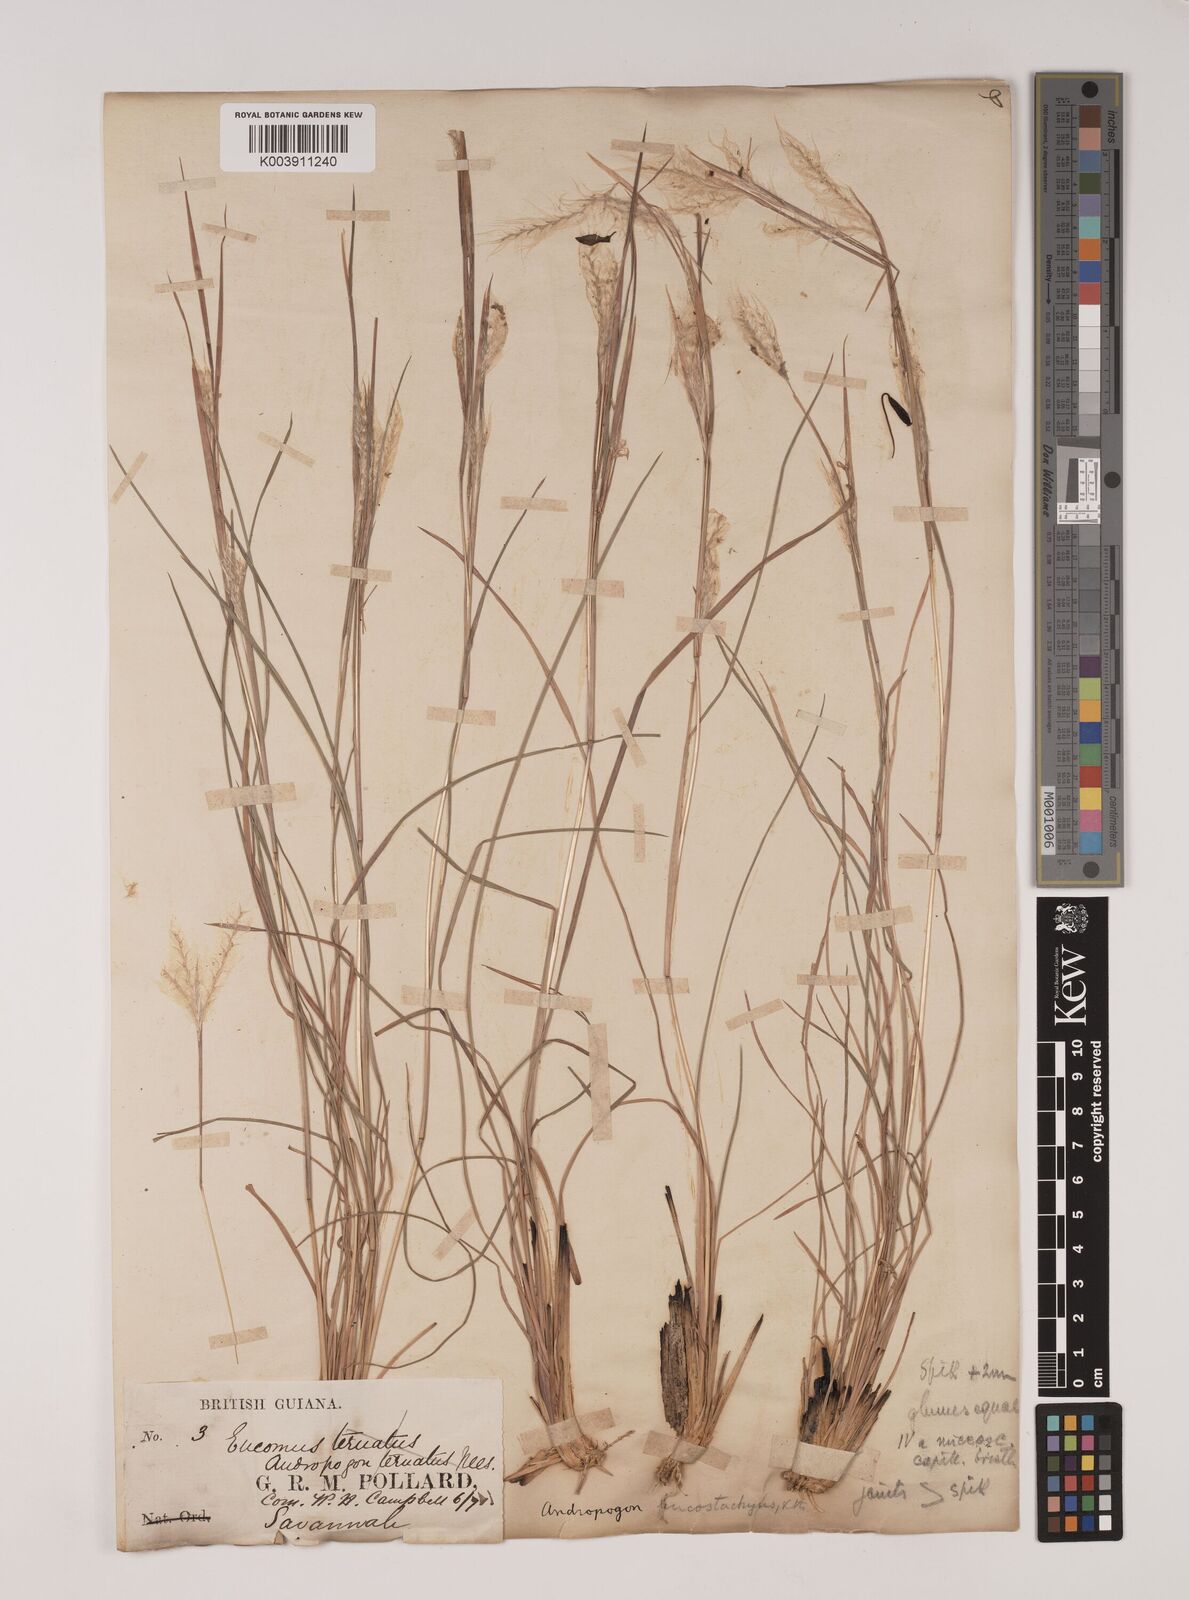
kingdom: Plantae
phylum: Tracheophyta
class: Liliopsida
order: Poales
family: Poaceae
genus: Andropogon
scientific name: Andropogon leucostachyus
